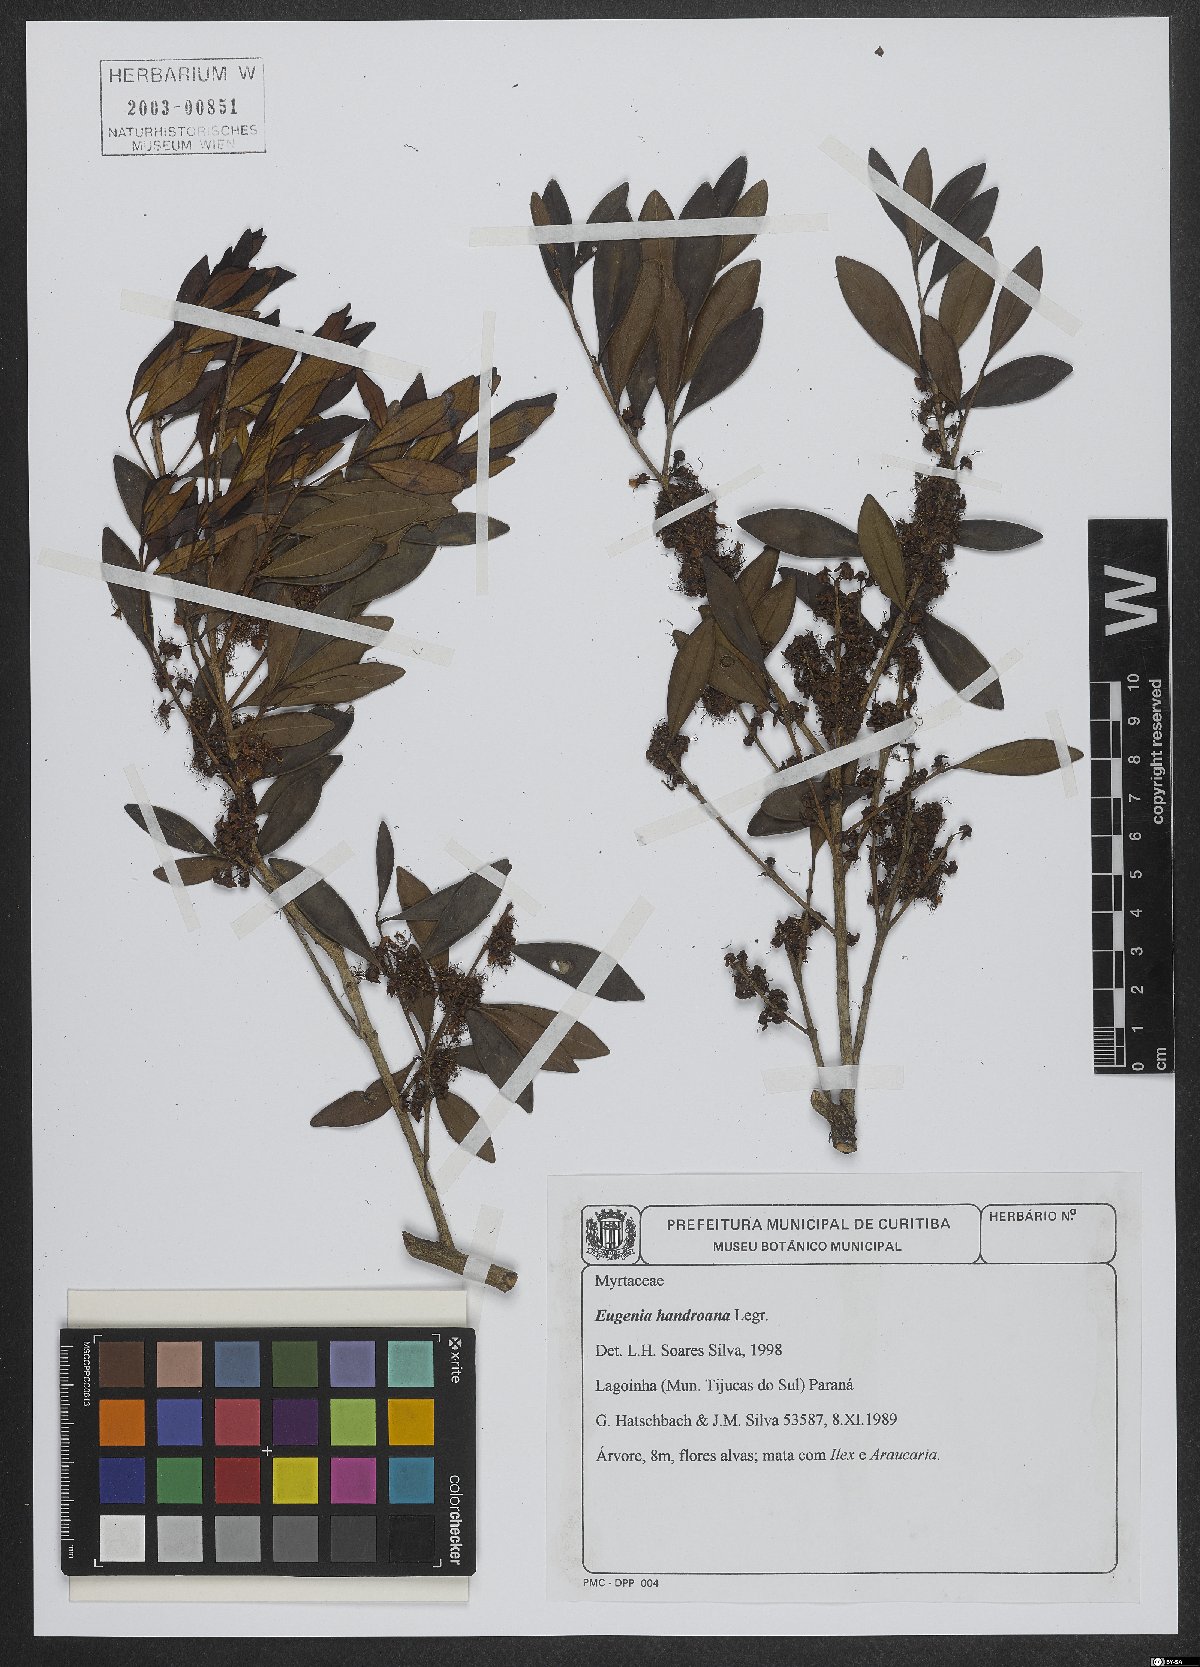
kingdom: Plantae
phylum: Tracheophyta
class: Magnoliopsida
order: Myrtales
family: Myrtaceae
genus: Eugenia
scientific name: Eugenia handroana
